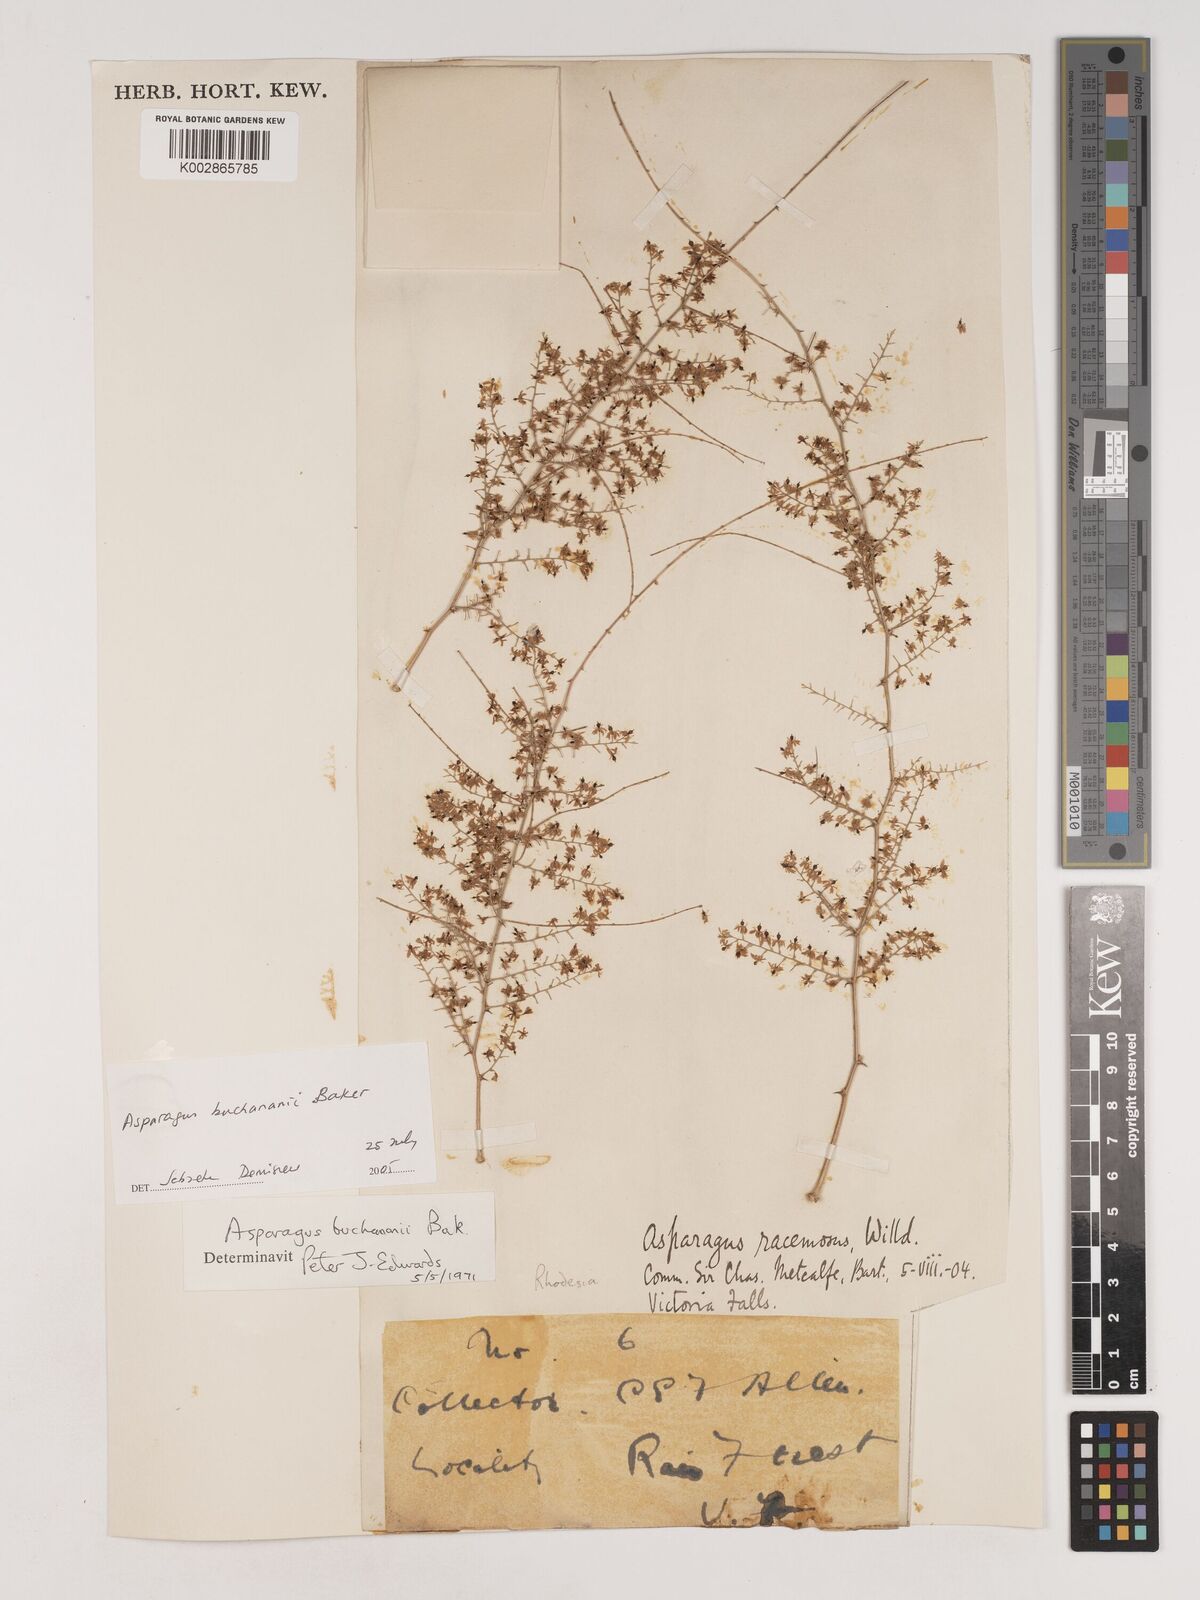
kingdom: Plantae
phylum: Tracheophyta
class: Liliopsida
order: Asparagales
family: Asparagaceae
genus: Asparagus
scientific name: Asparagus buchananii
